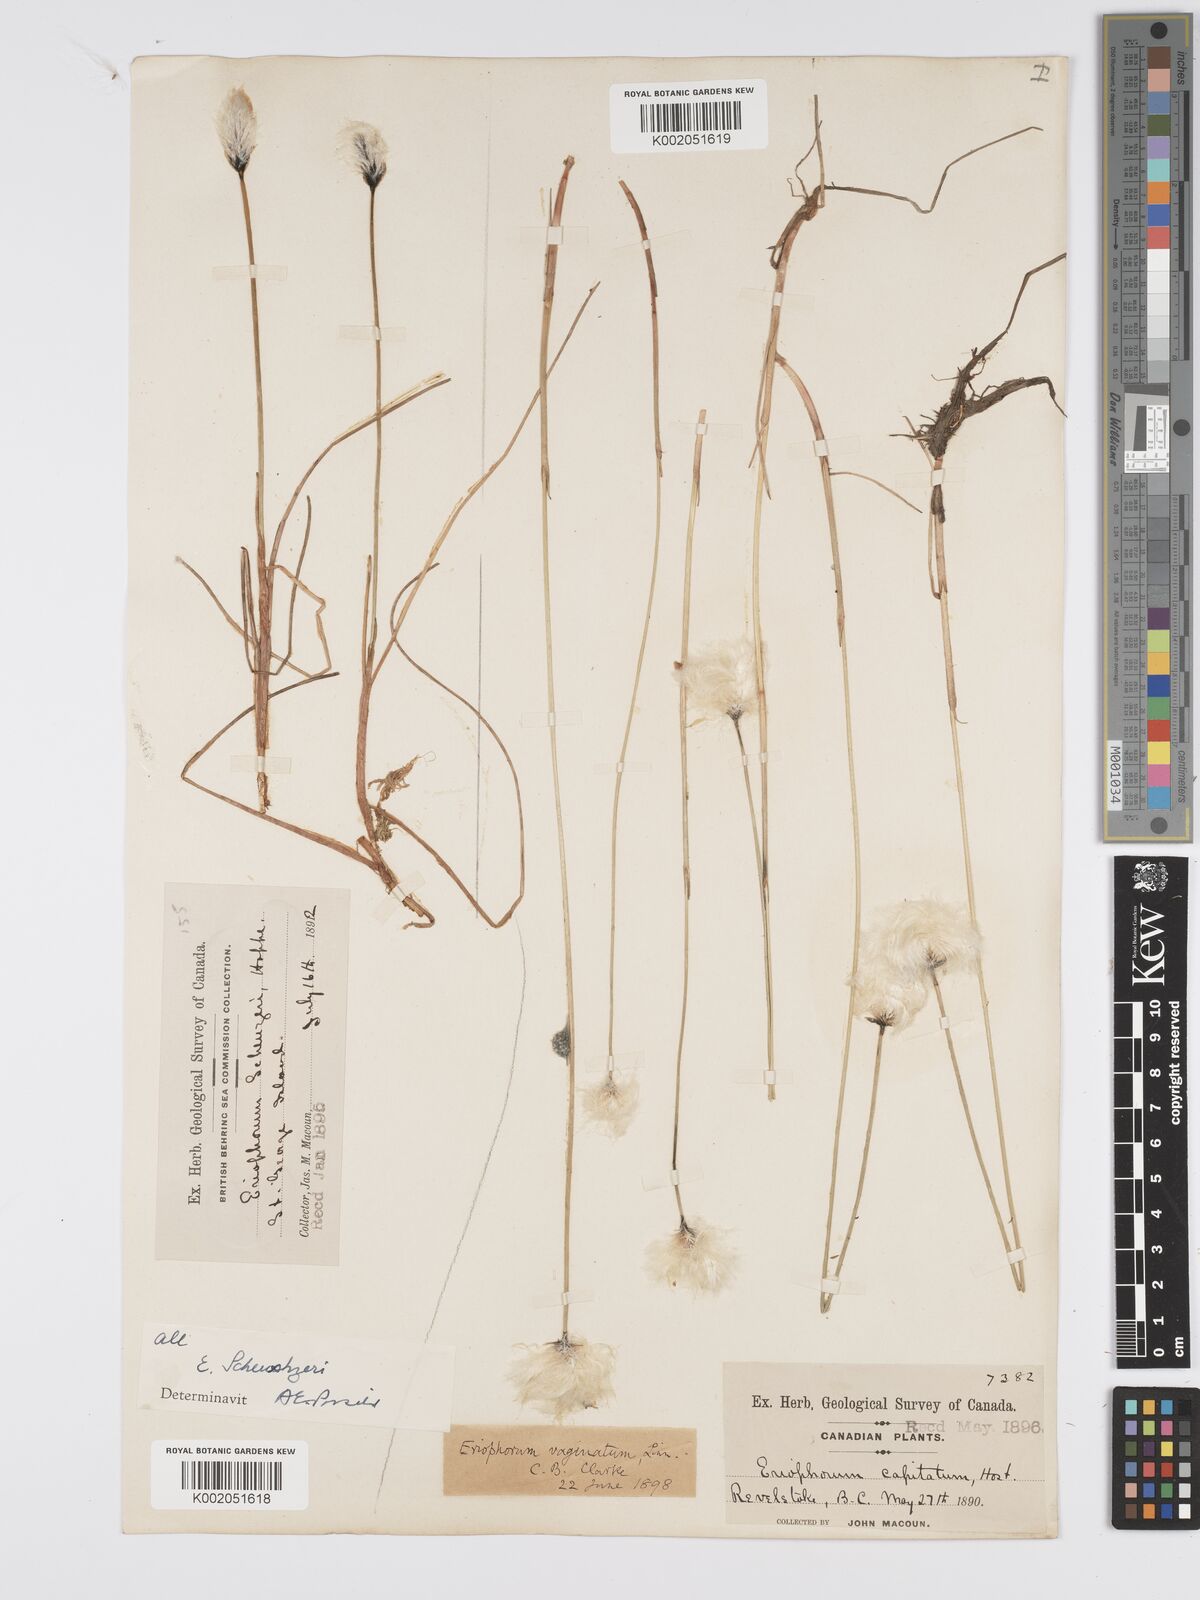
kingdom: Plantae
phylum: Tracheophyta
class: Liliopsida
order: Poales
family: Cyperaceae
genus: Eriophorum
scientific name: Eriophorum scheuchzeri
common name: Scheuchzer's cottongrass
